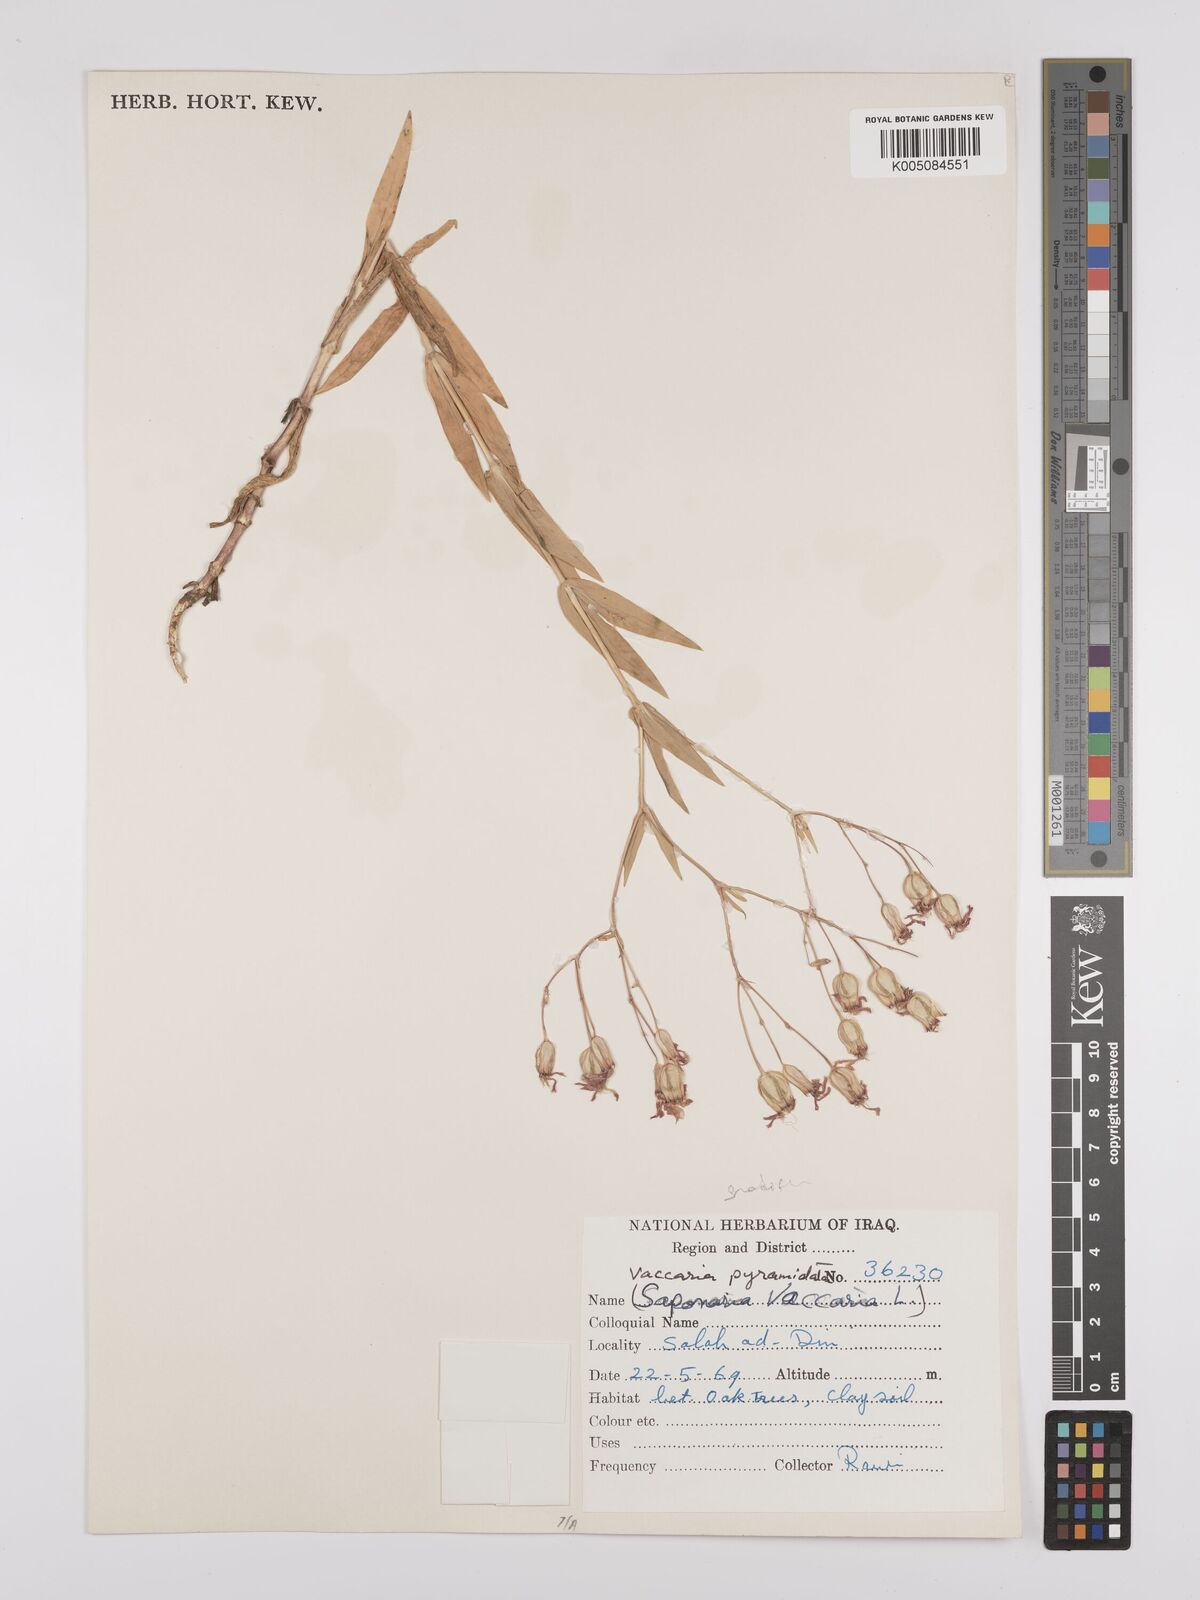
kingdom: Plantae
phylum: Tracheophyta
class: Magnoliopsida
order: Caryophyllales
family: Caryophyllaceae
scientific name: Caryophyllaceae
